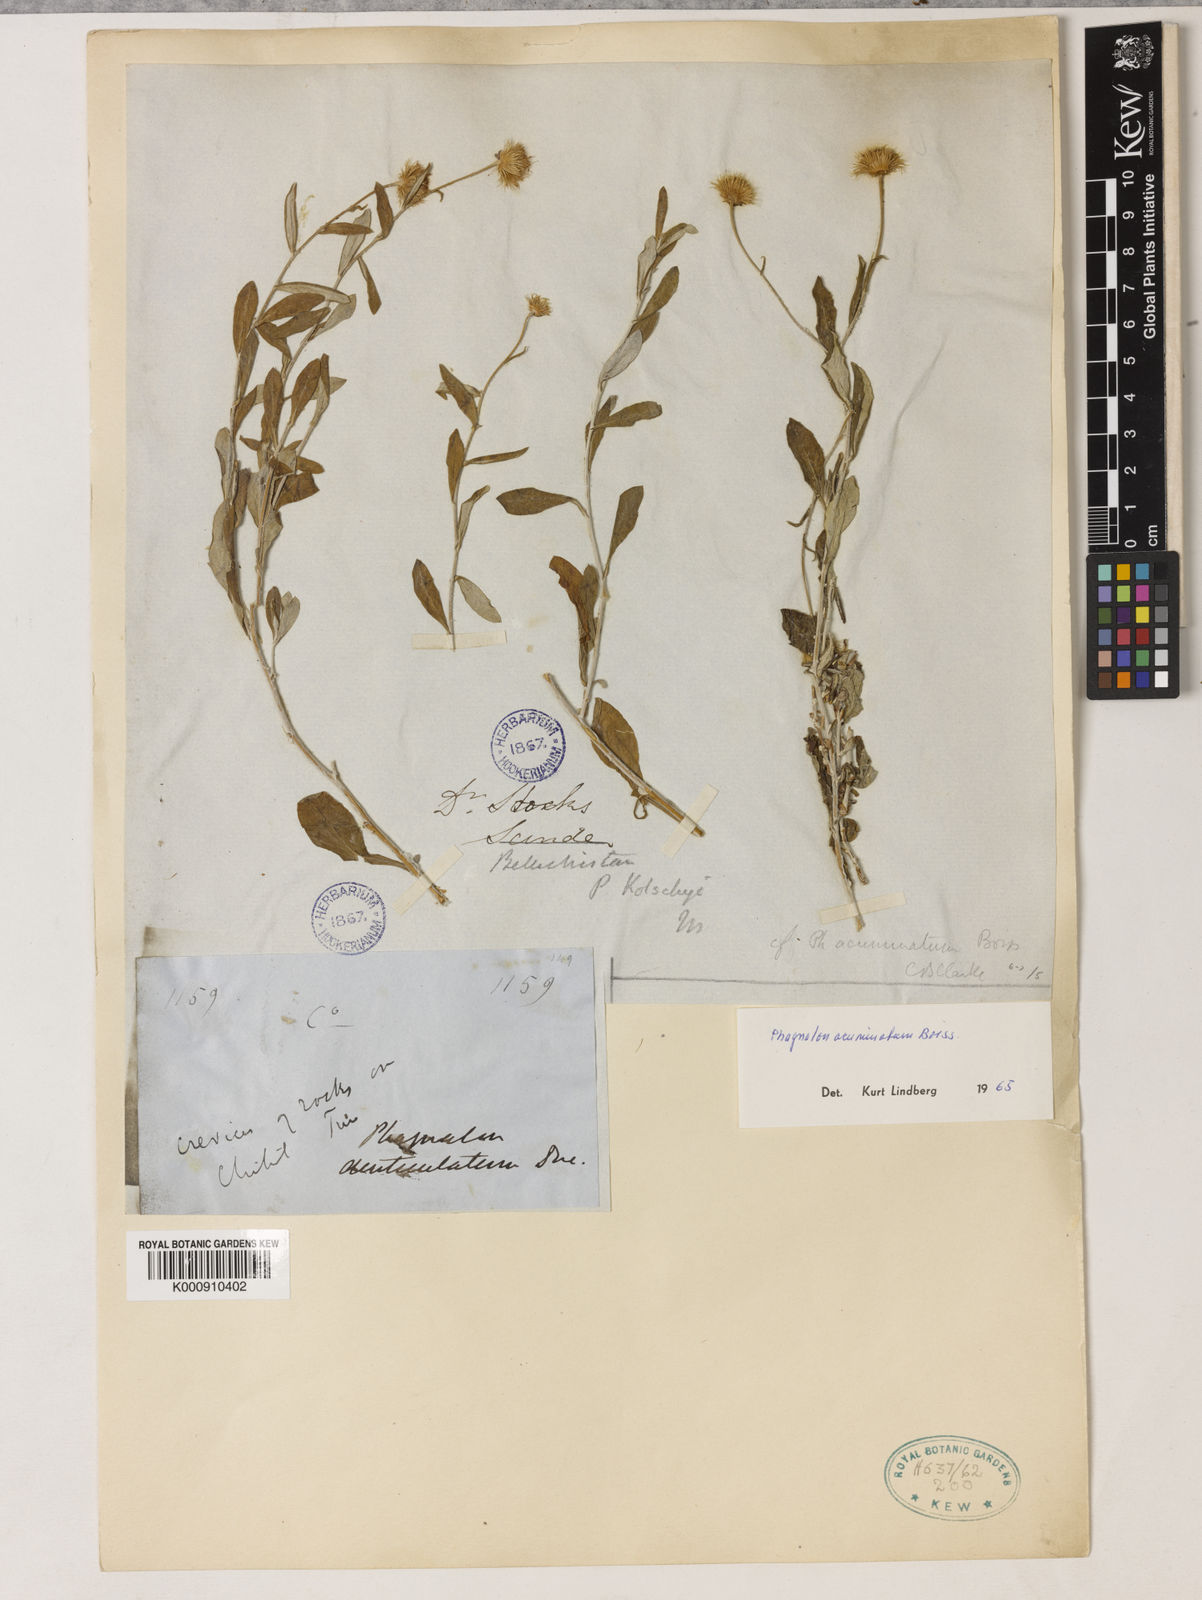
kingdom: Plantae
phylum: Tracheophyta
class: Magnoliopsida
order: Asterales
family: Asteraceae
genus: Phagnalon
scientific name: Phagnalon acuminatum
